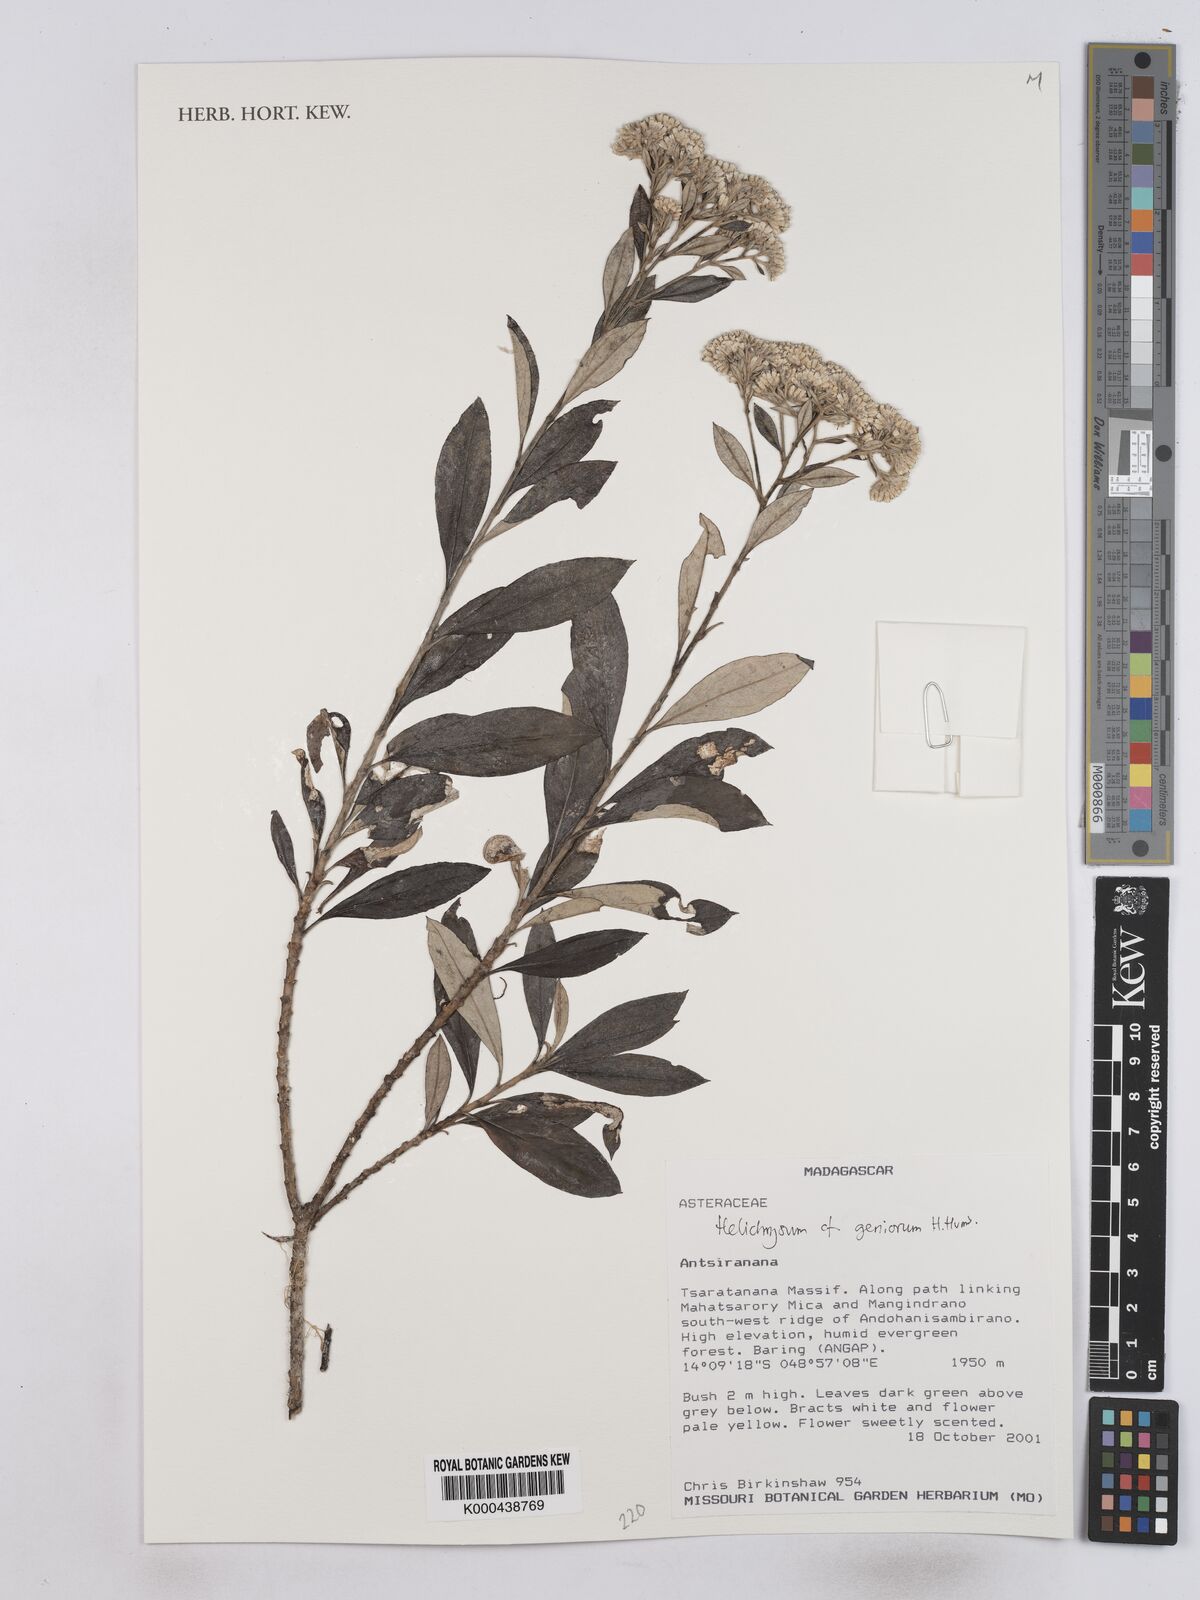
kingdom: Plantae
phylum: Tracheophyta
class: Magnoliopsida
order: Asterales
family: Asteraceae
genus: Helichrysum
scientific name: Helichrysum geniorum
